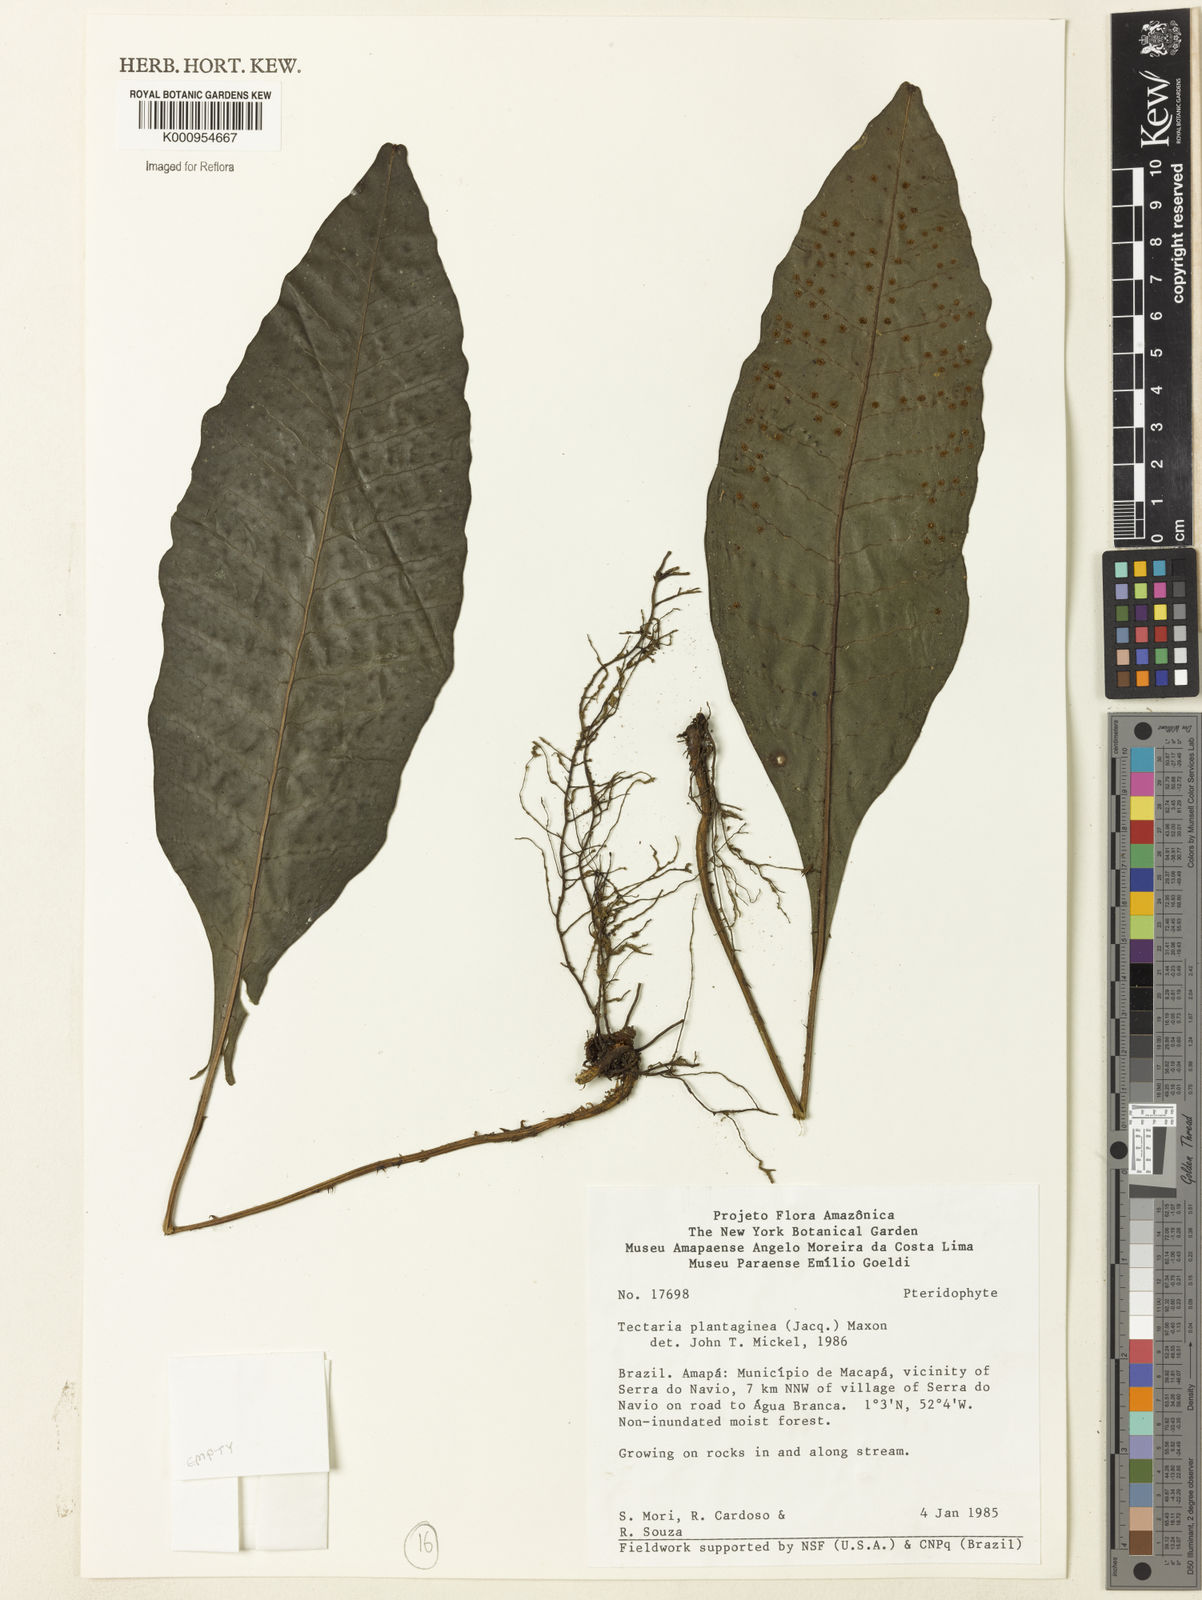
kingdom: Plantae
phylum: Tracheophyta
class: Polypodiopsida
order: Polypodiales
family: Lomariopsidaceae
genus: Dracoglossum
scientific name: Dracoglossum plantagineum
